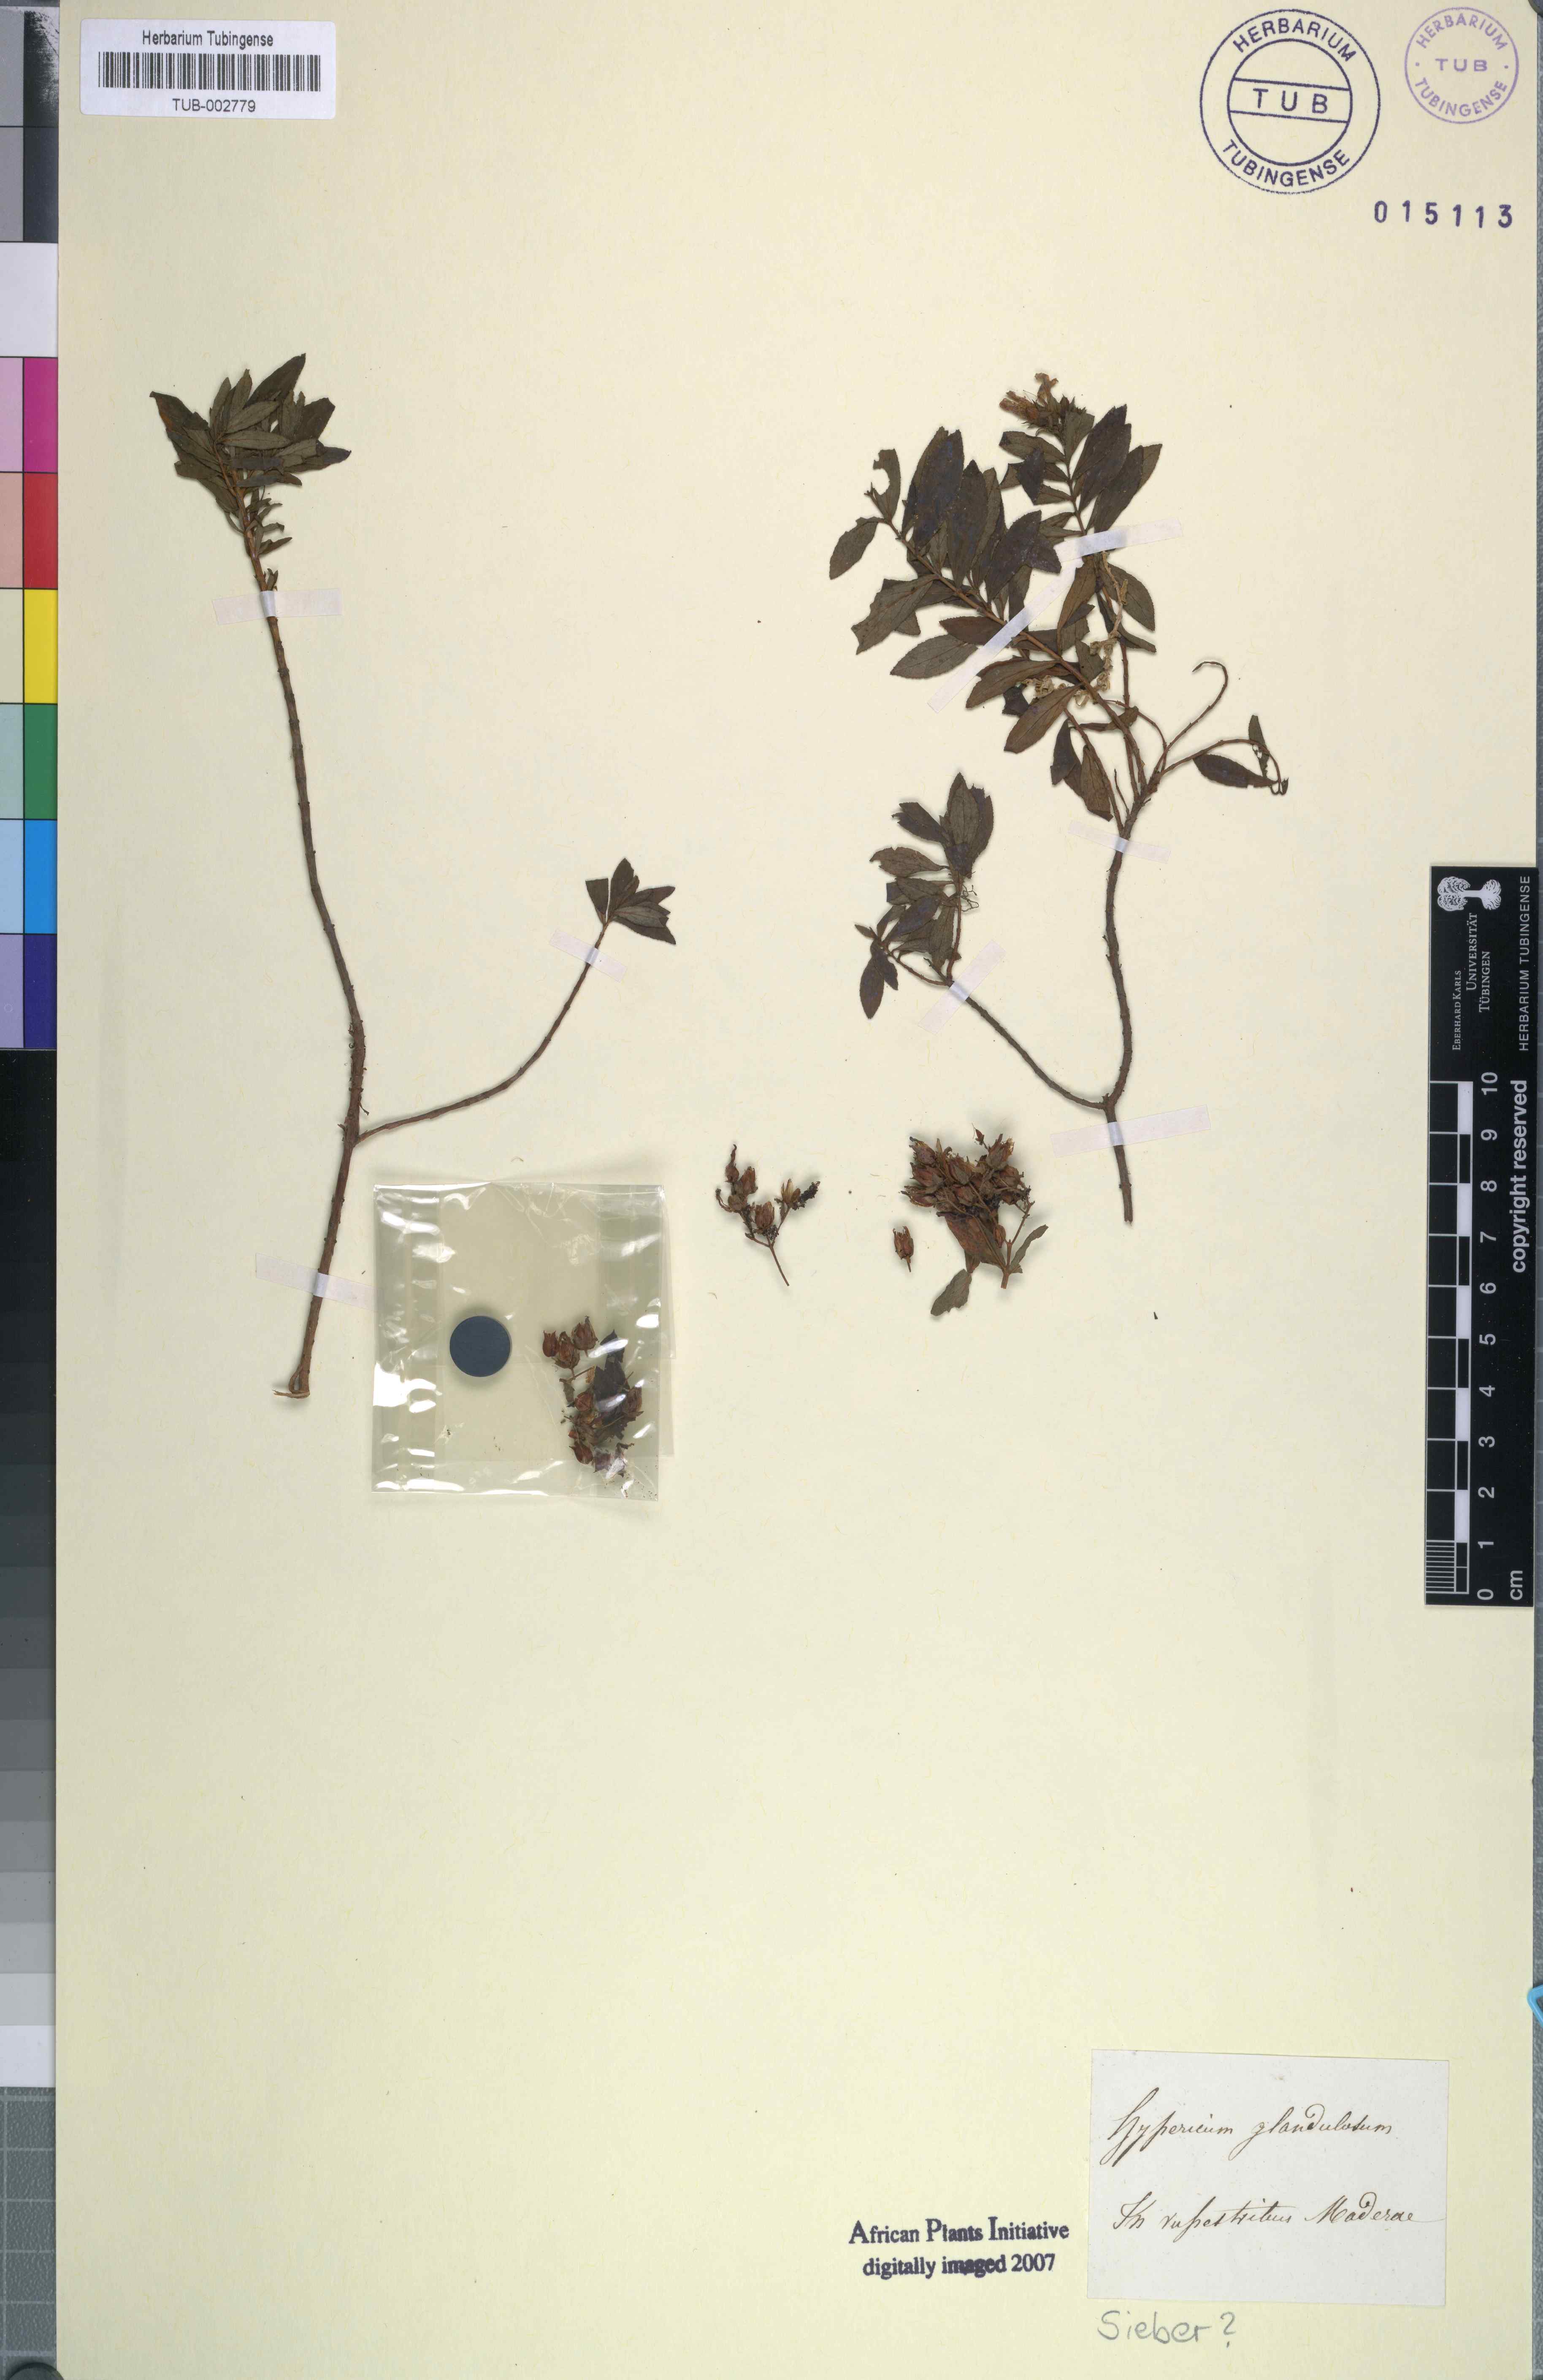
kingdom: Plantae
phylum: Tracheophyta
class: Magnoliopsida
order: Malpighiales
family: Hypericaceae
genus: Hypericum
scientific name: Hypericum glandulosum
